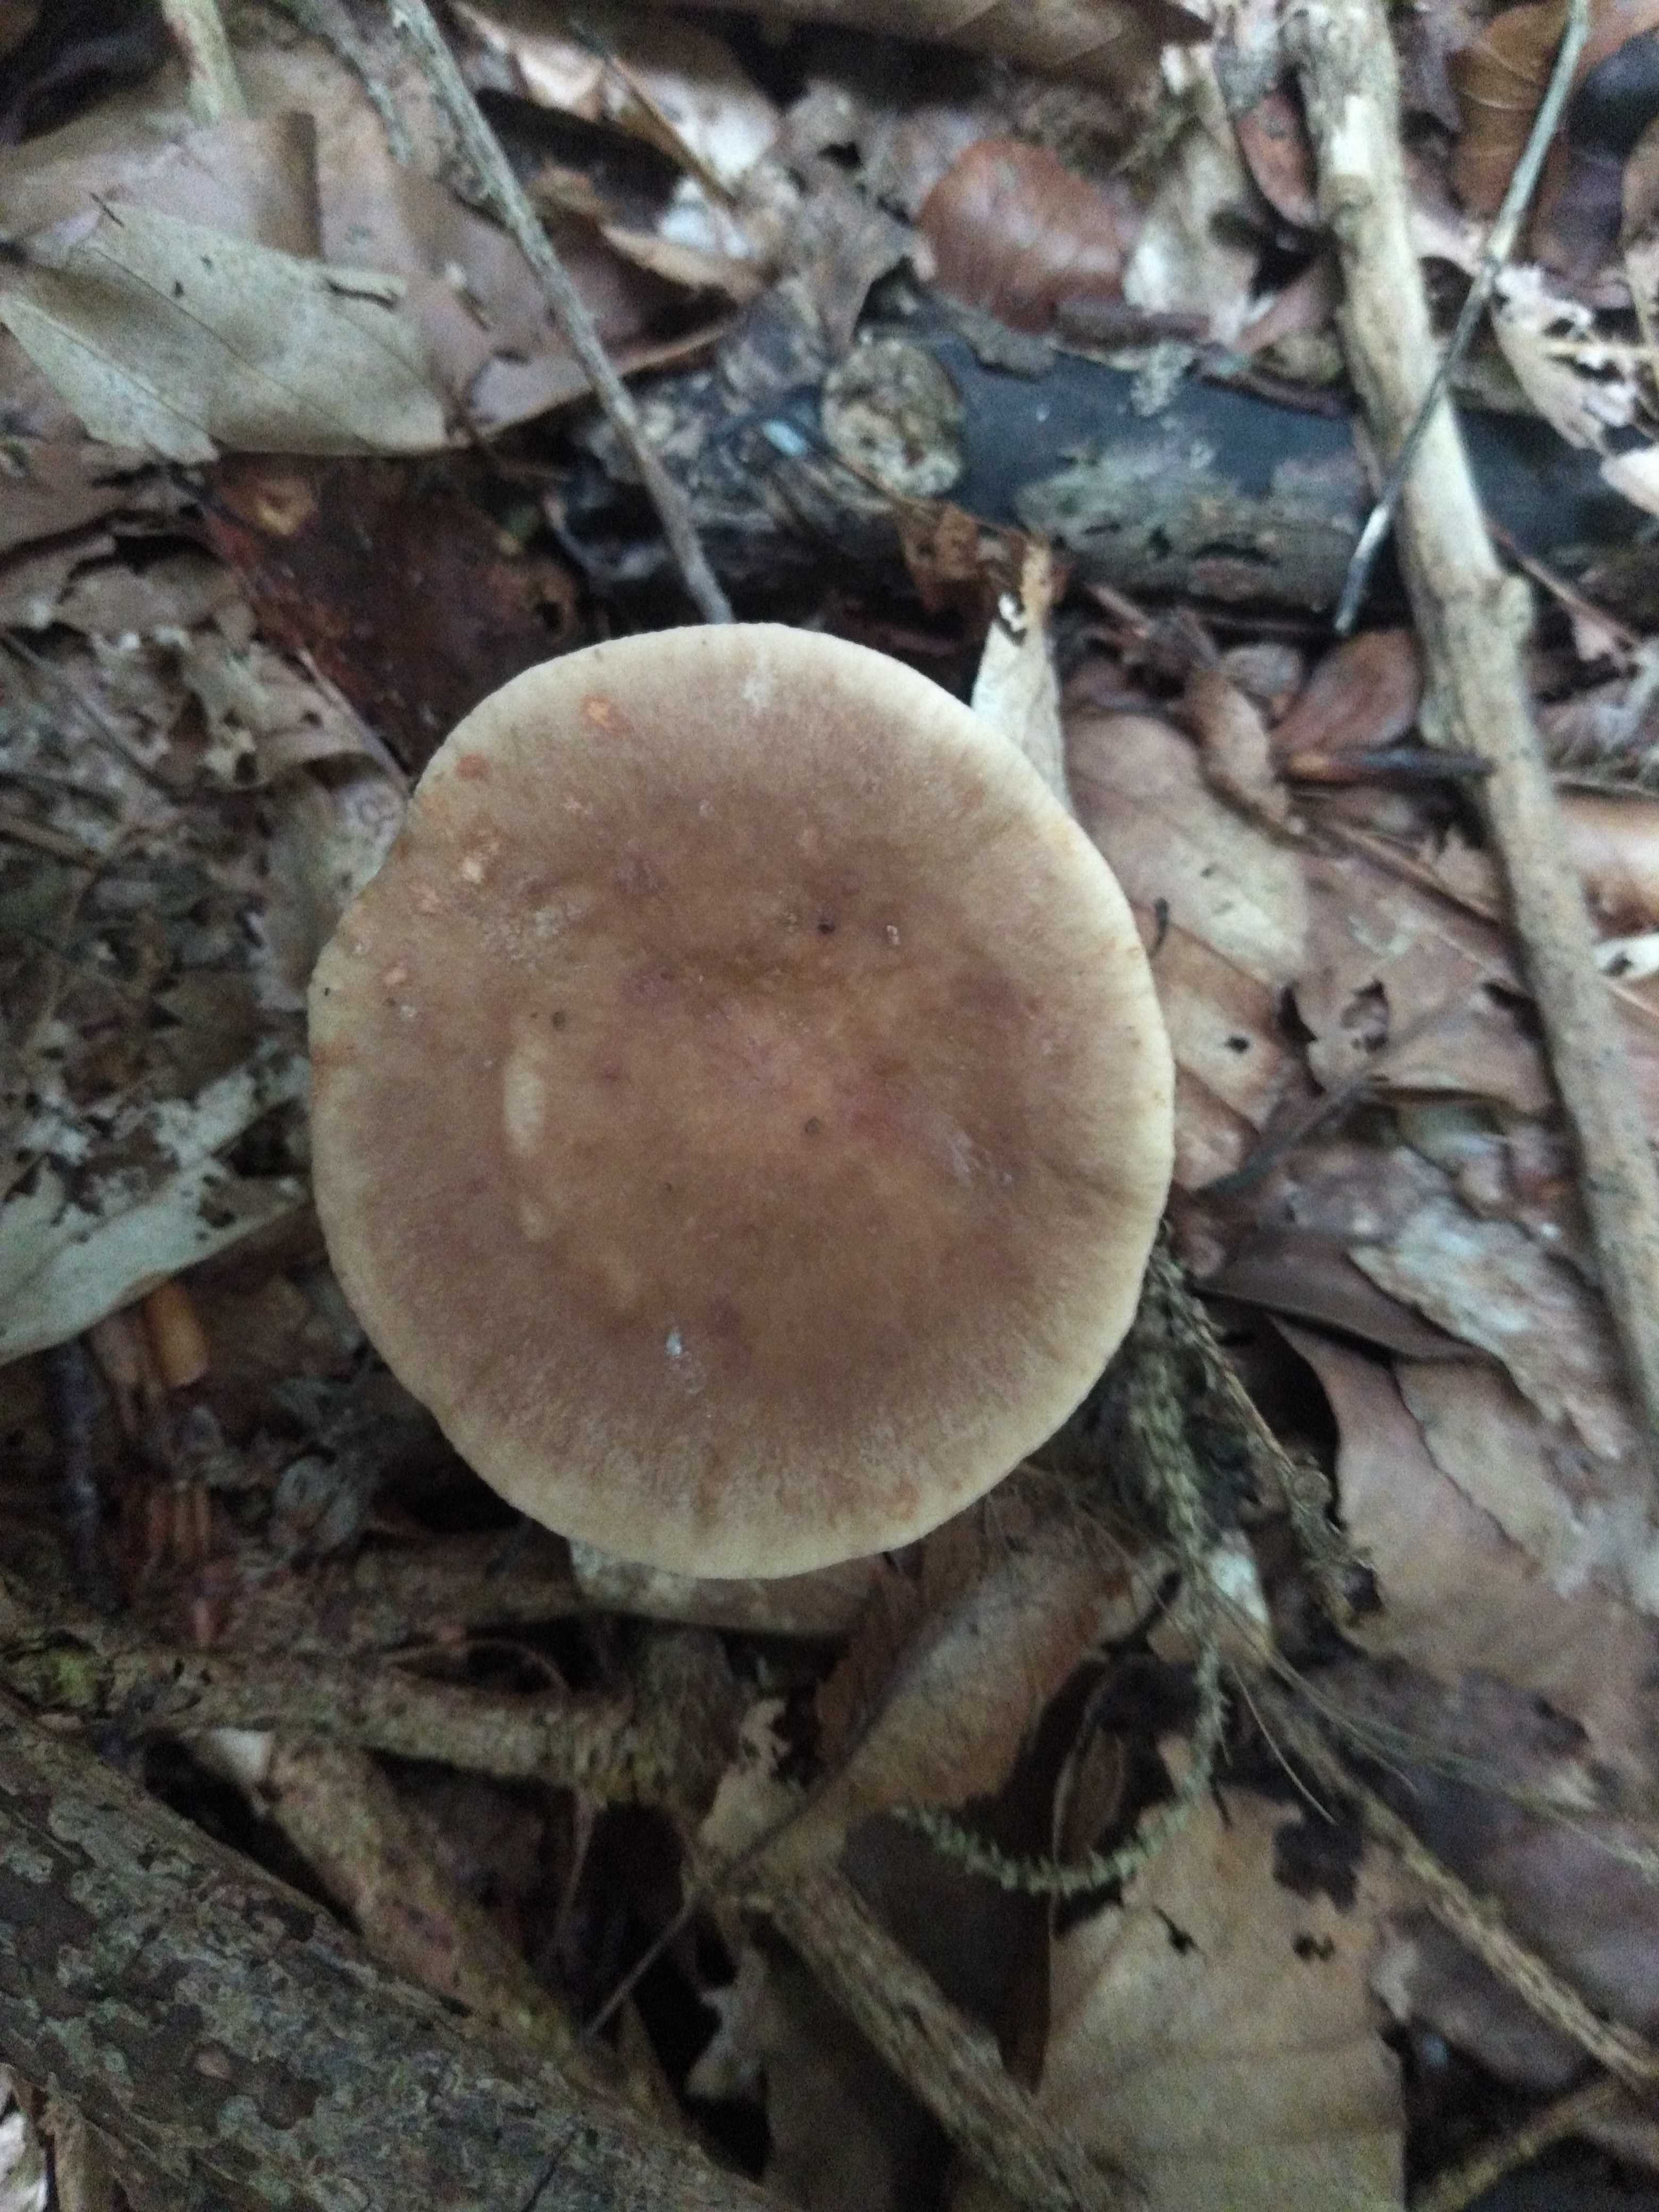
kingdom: Fungi
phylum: Basidiomycota
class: Agaricomycetes
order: Russulales
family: Russulaceae
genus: Lactarius
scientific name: Lactarius subdulcis
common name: sødlig mælkehat
